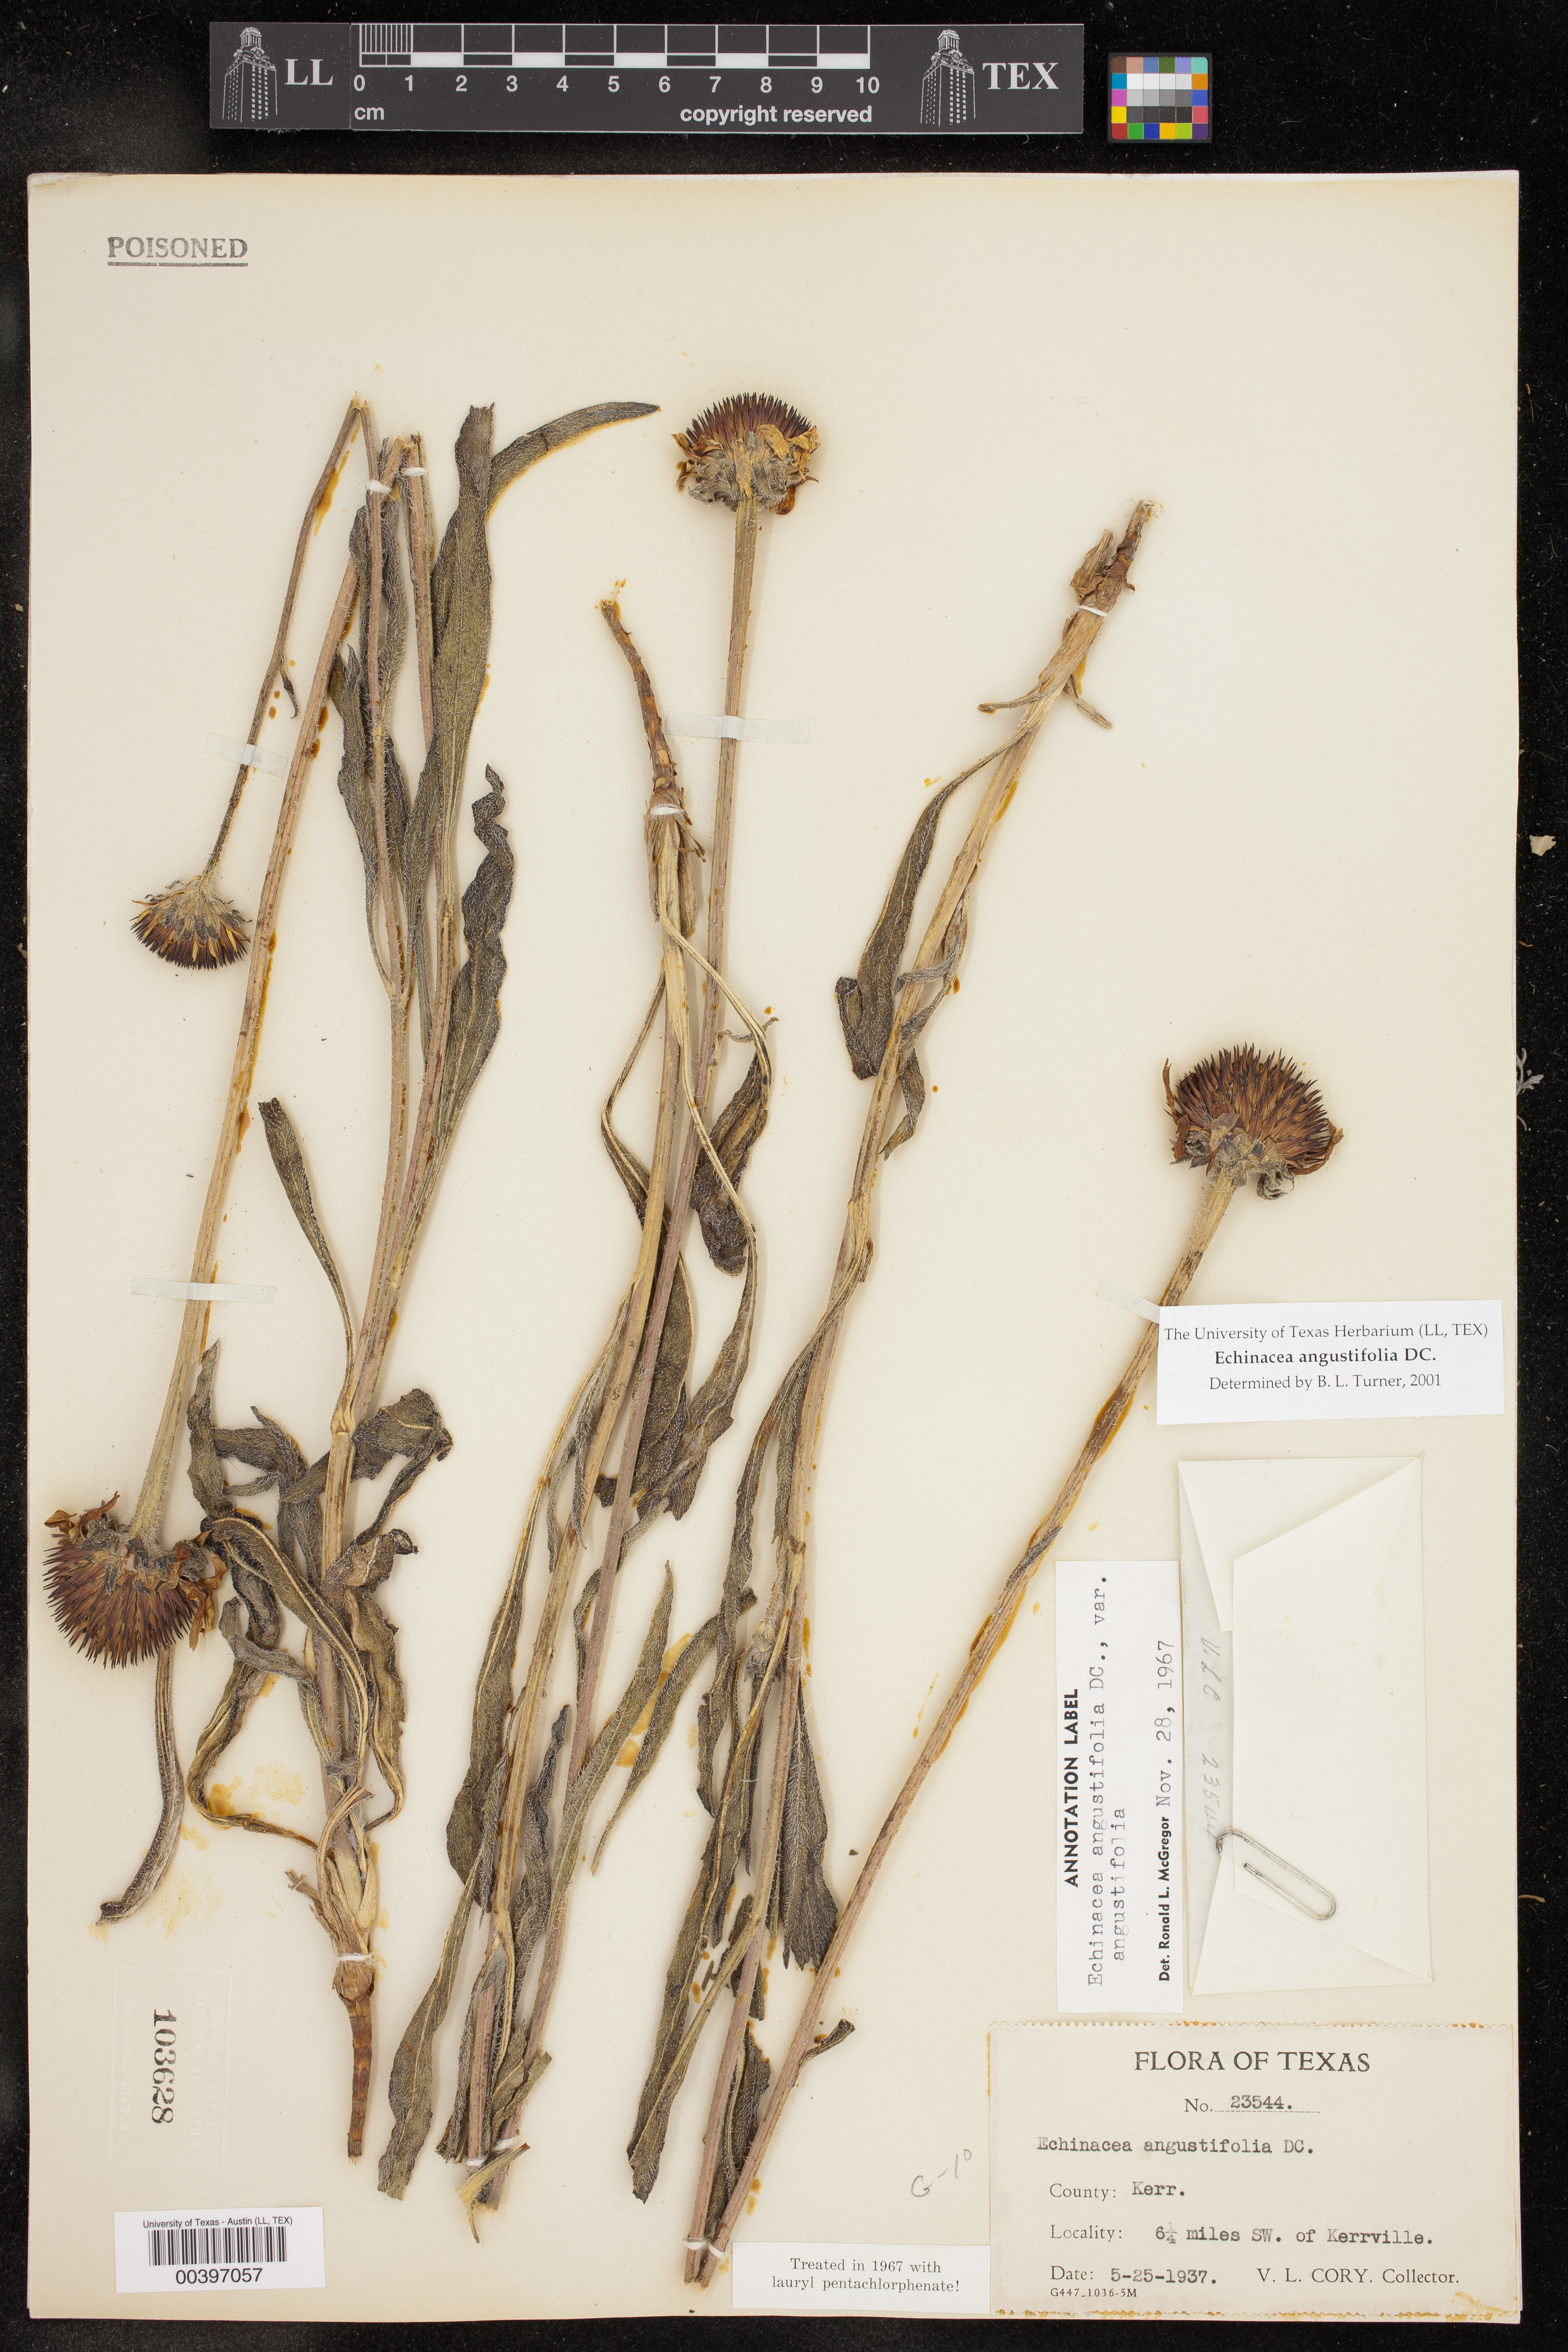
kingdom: Plantae
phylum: Tracheophyta
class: Magnoliopsida
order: Asterales
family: Asteraceae
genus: Echinacea
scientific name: Echinacea angustifolia
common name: Black-sampson echinacea
